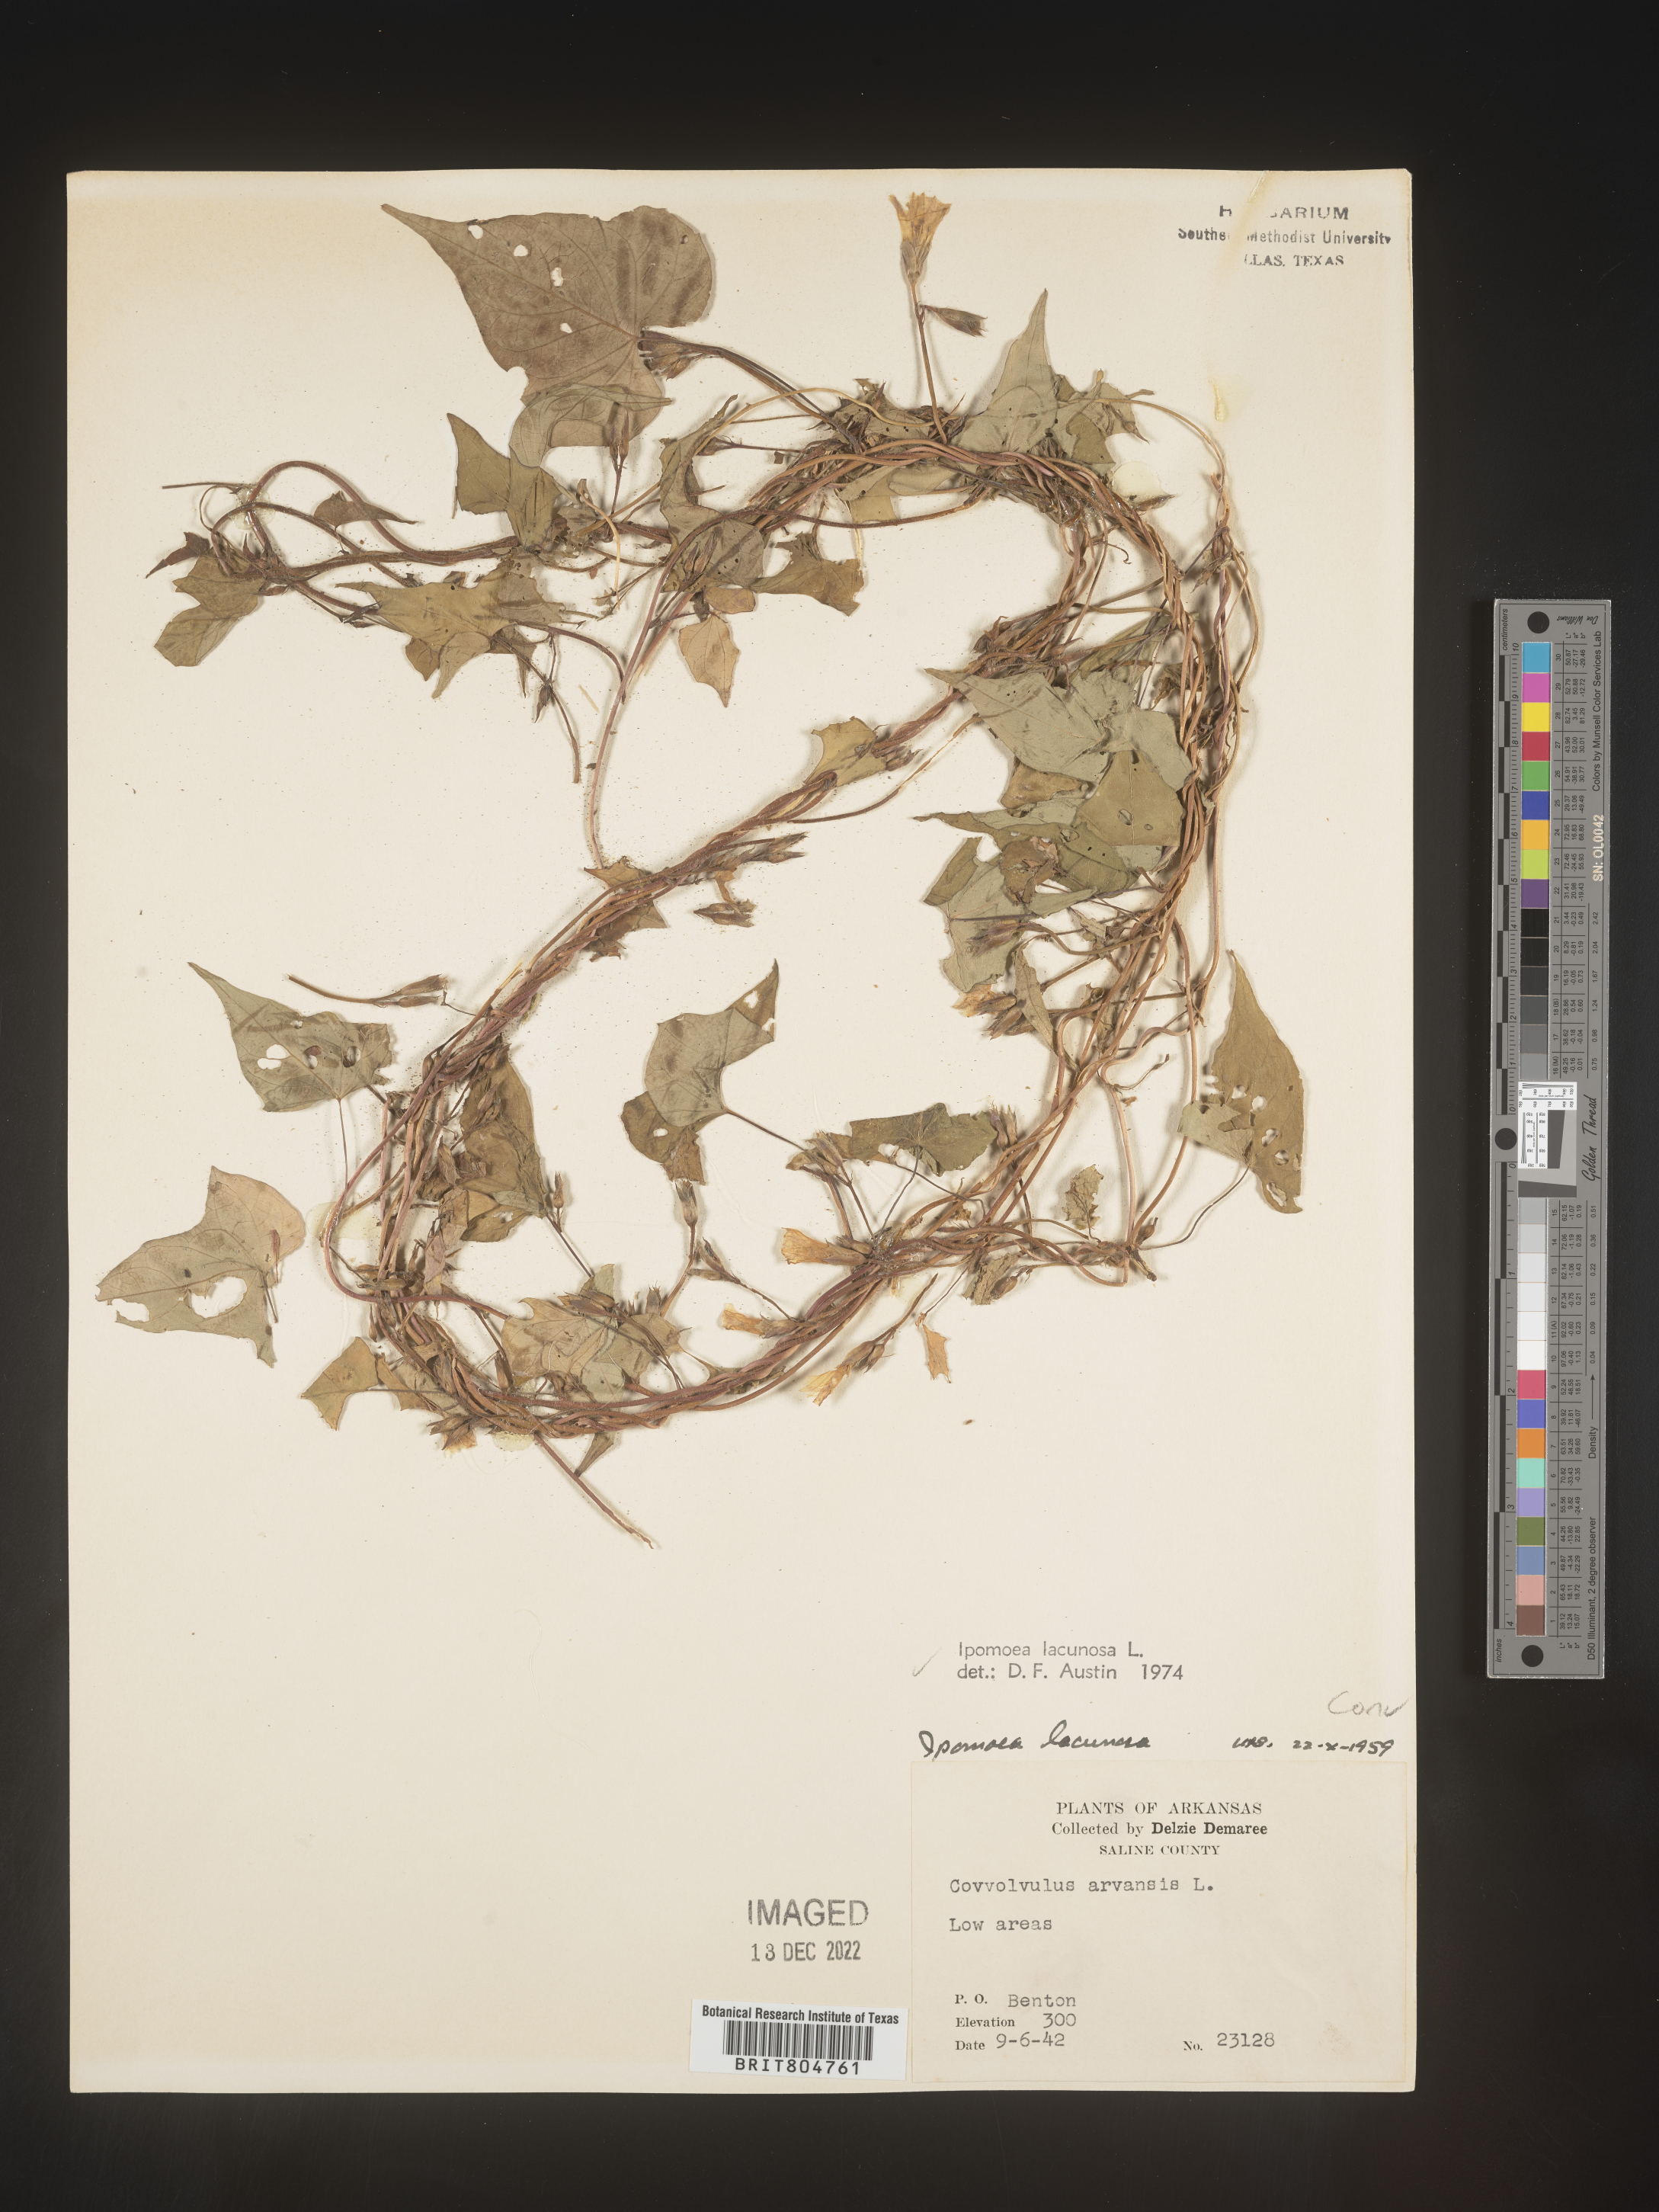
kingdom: Plantae
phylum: Tracheophyta
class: Magnoliopsida
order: Solanales
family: Convolvulaceae
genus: Ipomoea
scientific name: Ipomoea lacunosa
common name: White morning-glory
